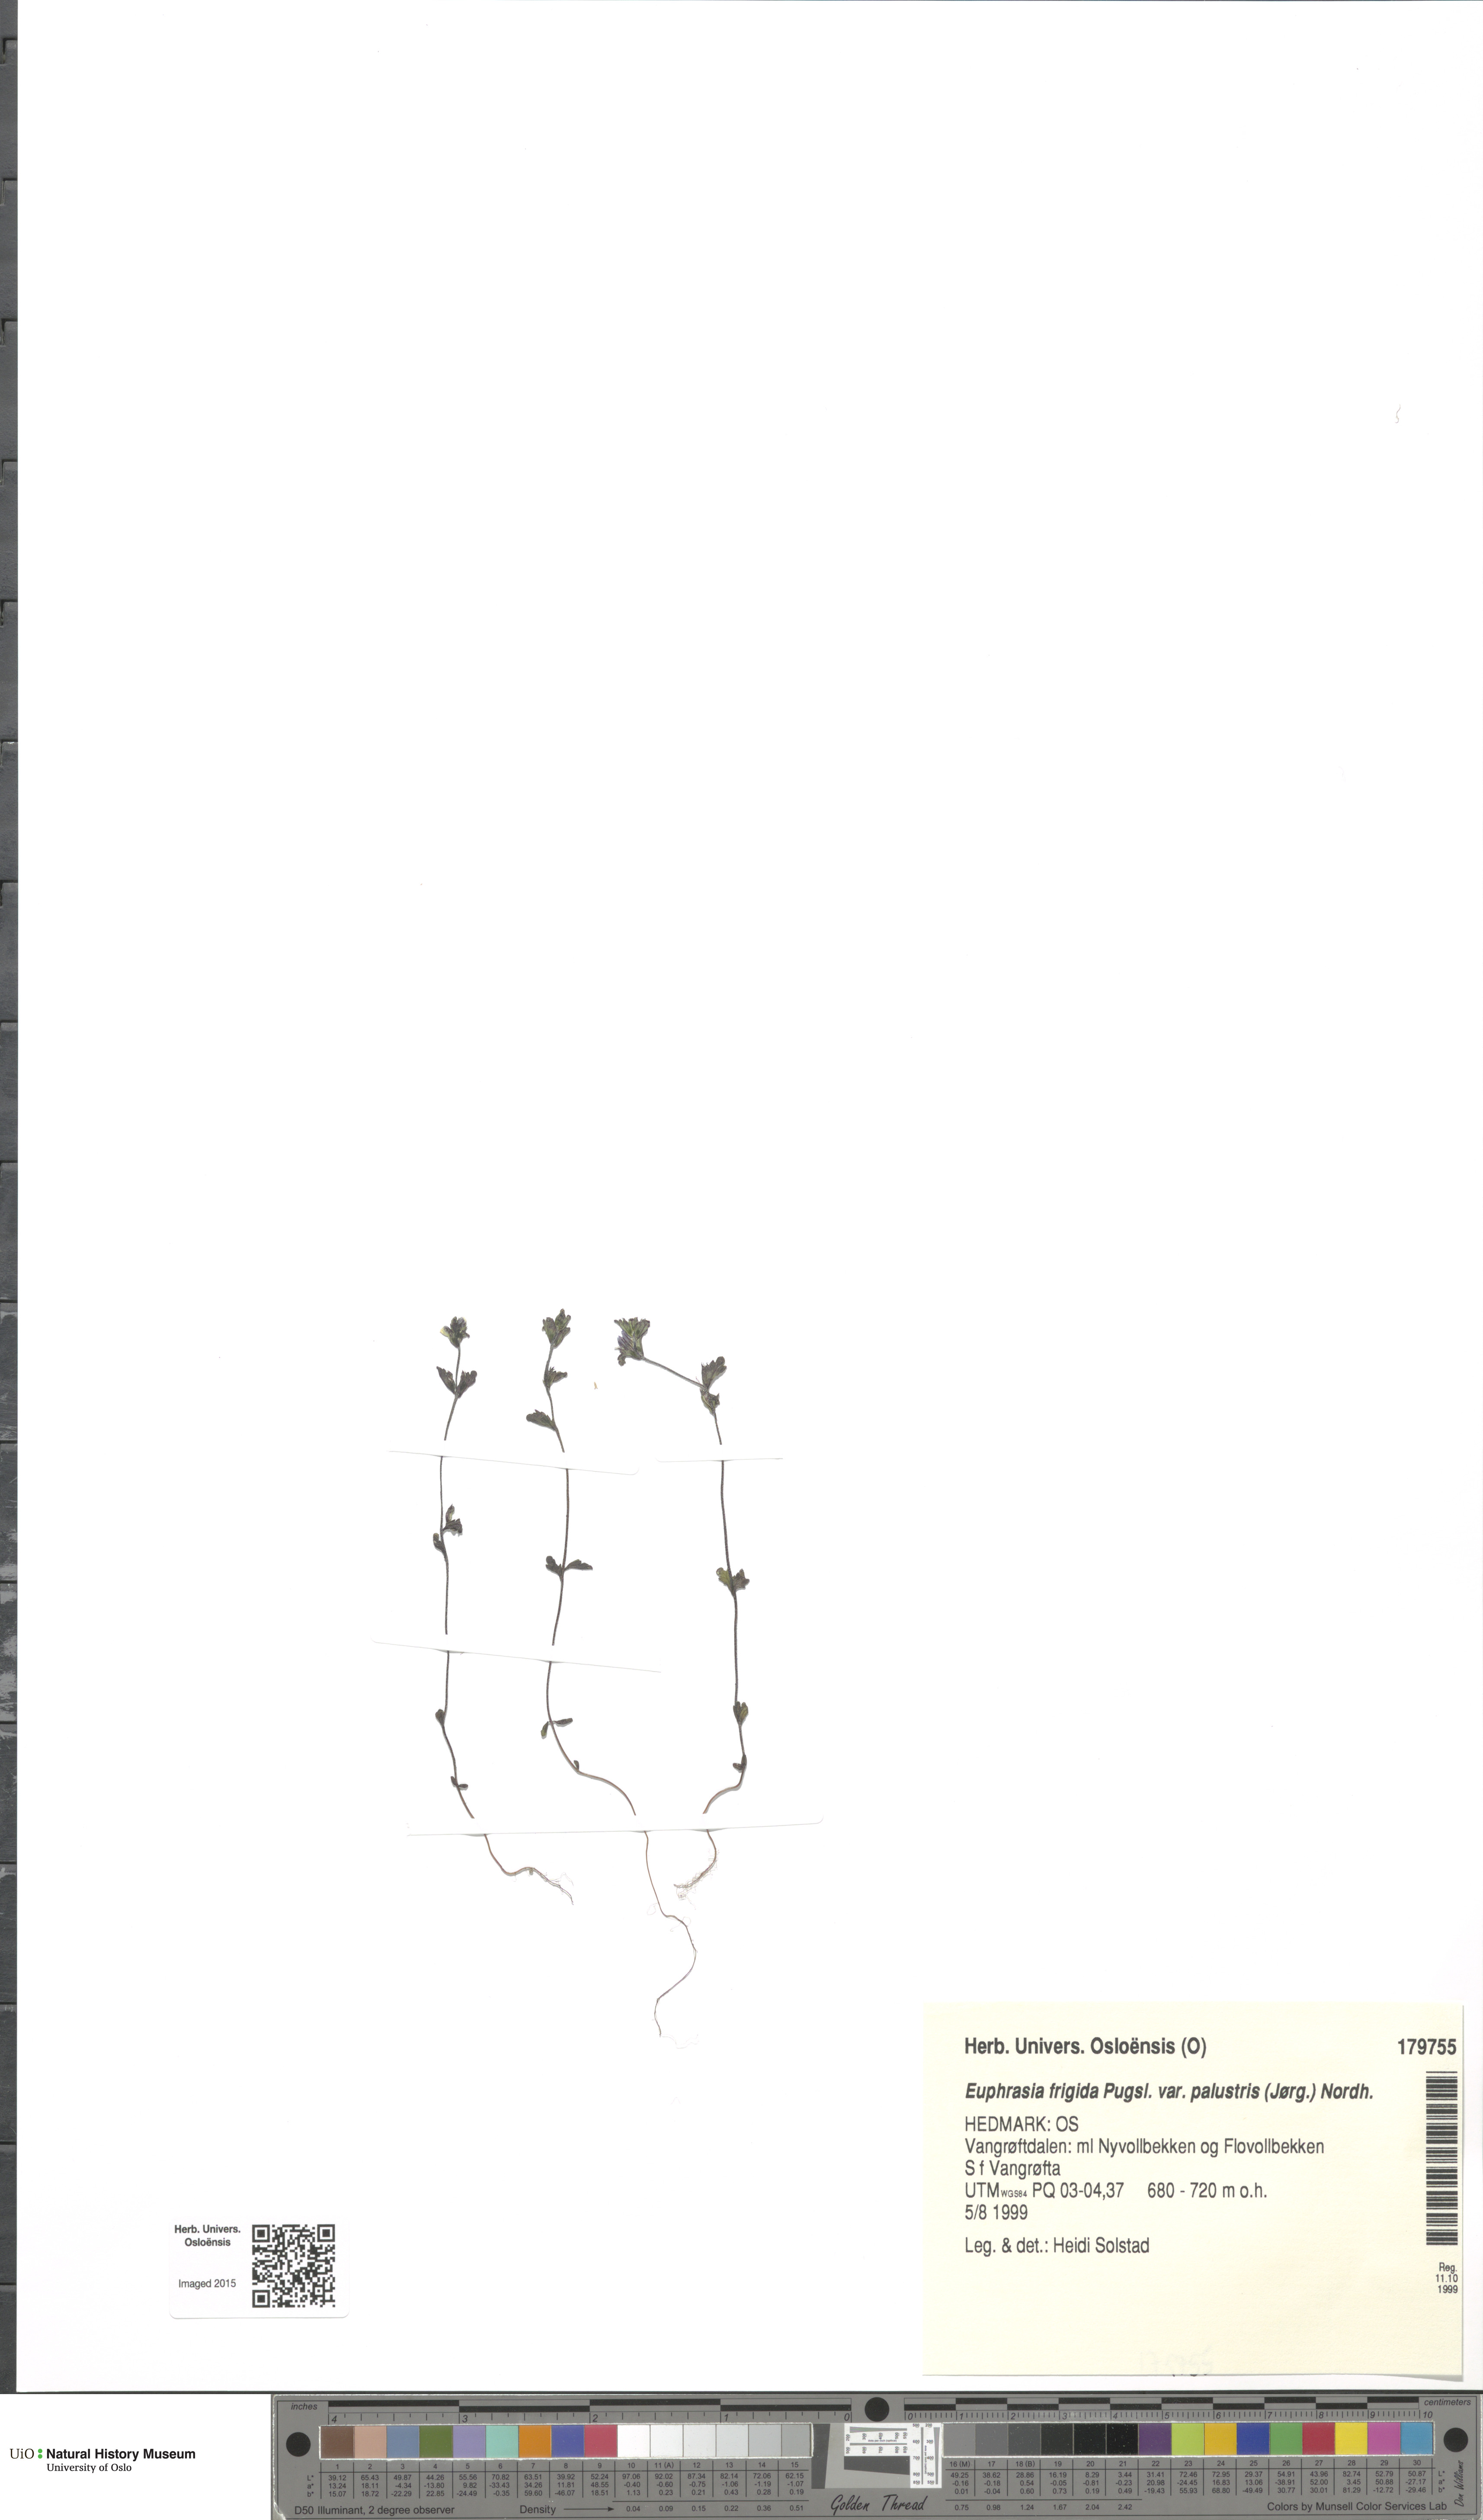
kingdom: Plantae
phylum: Tracheophyta
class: Magnoliopsida
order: Lamiales
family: Orobanchaceae
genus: Euphrasia
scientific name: Euphrasia wettsteinii
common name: Wettstein's eyebright
